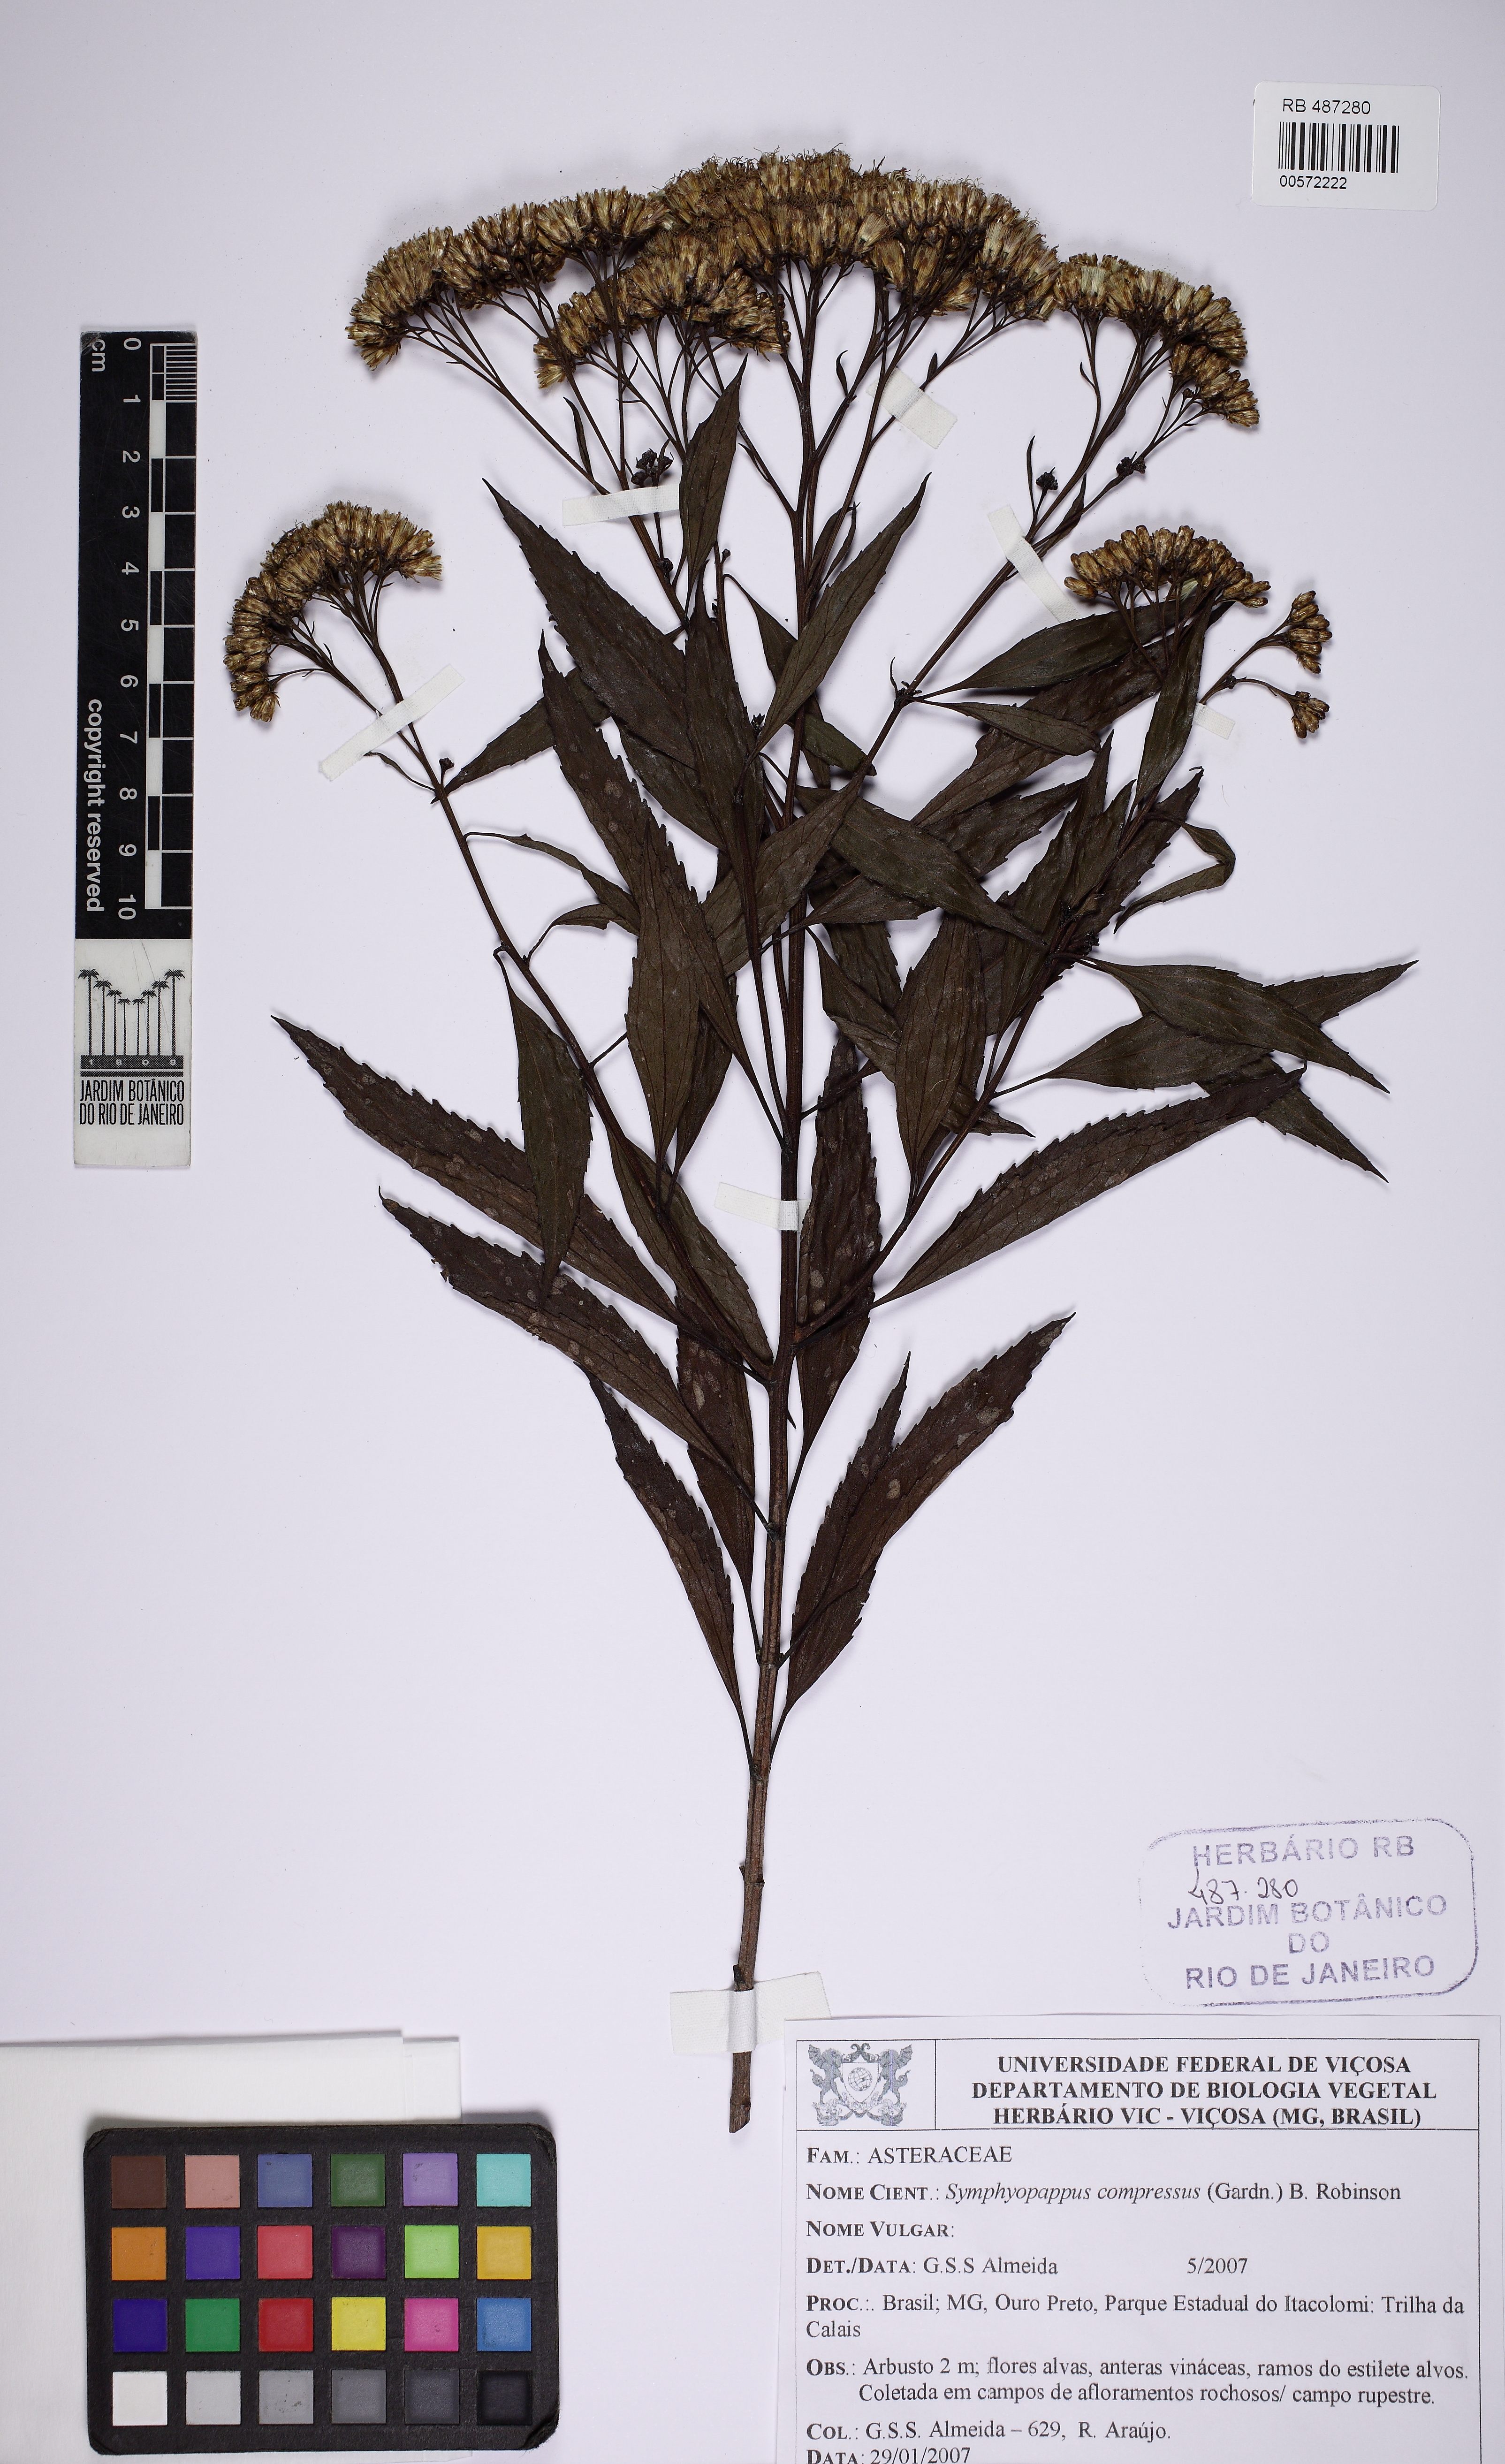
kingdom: Plantae
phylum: Tracheophyta
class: Magnoliopsida
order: Asterales
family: Asteraceae
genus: Symphyopappus
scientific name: Symphyopappus compressus
